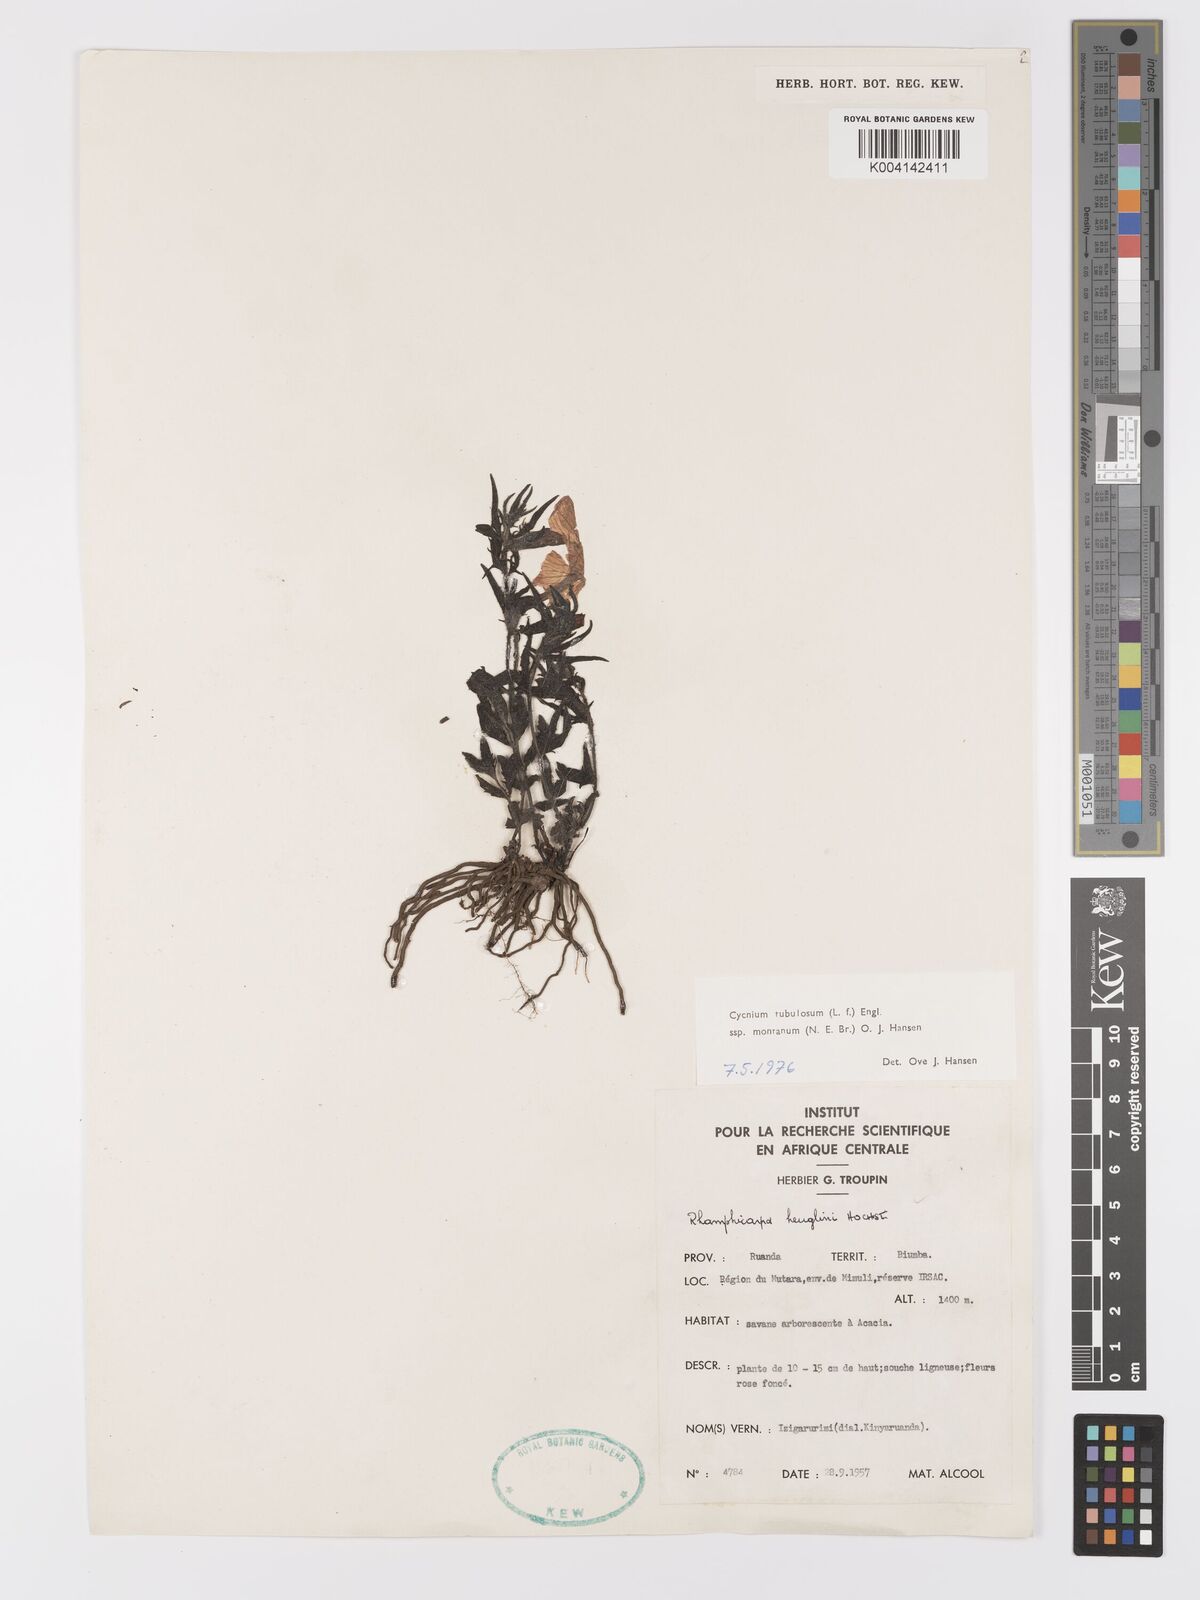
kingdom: Plantae
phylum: Tracheophyta
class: Magnoliopsida
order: Lamiales
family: Orobanchaceae
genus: Cycnium
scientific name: Cycnium tubulosum
